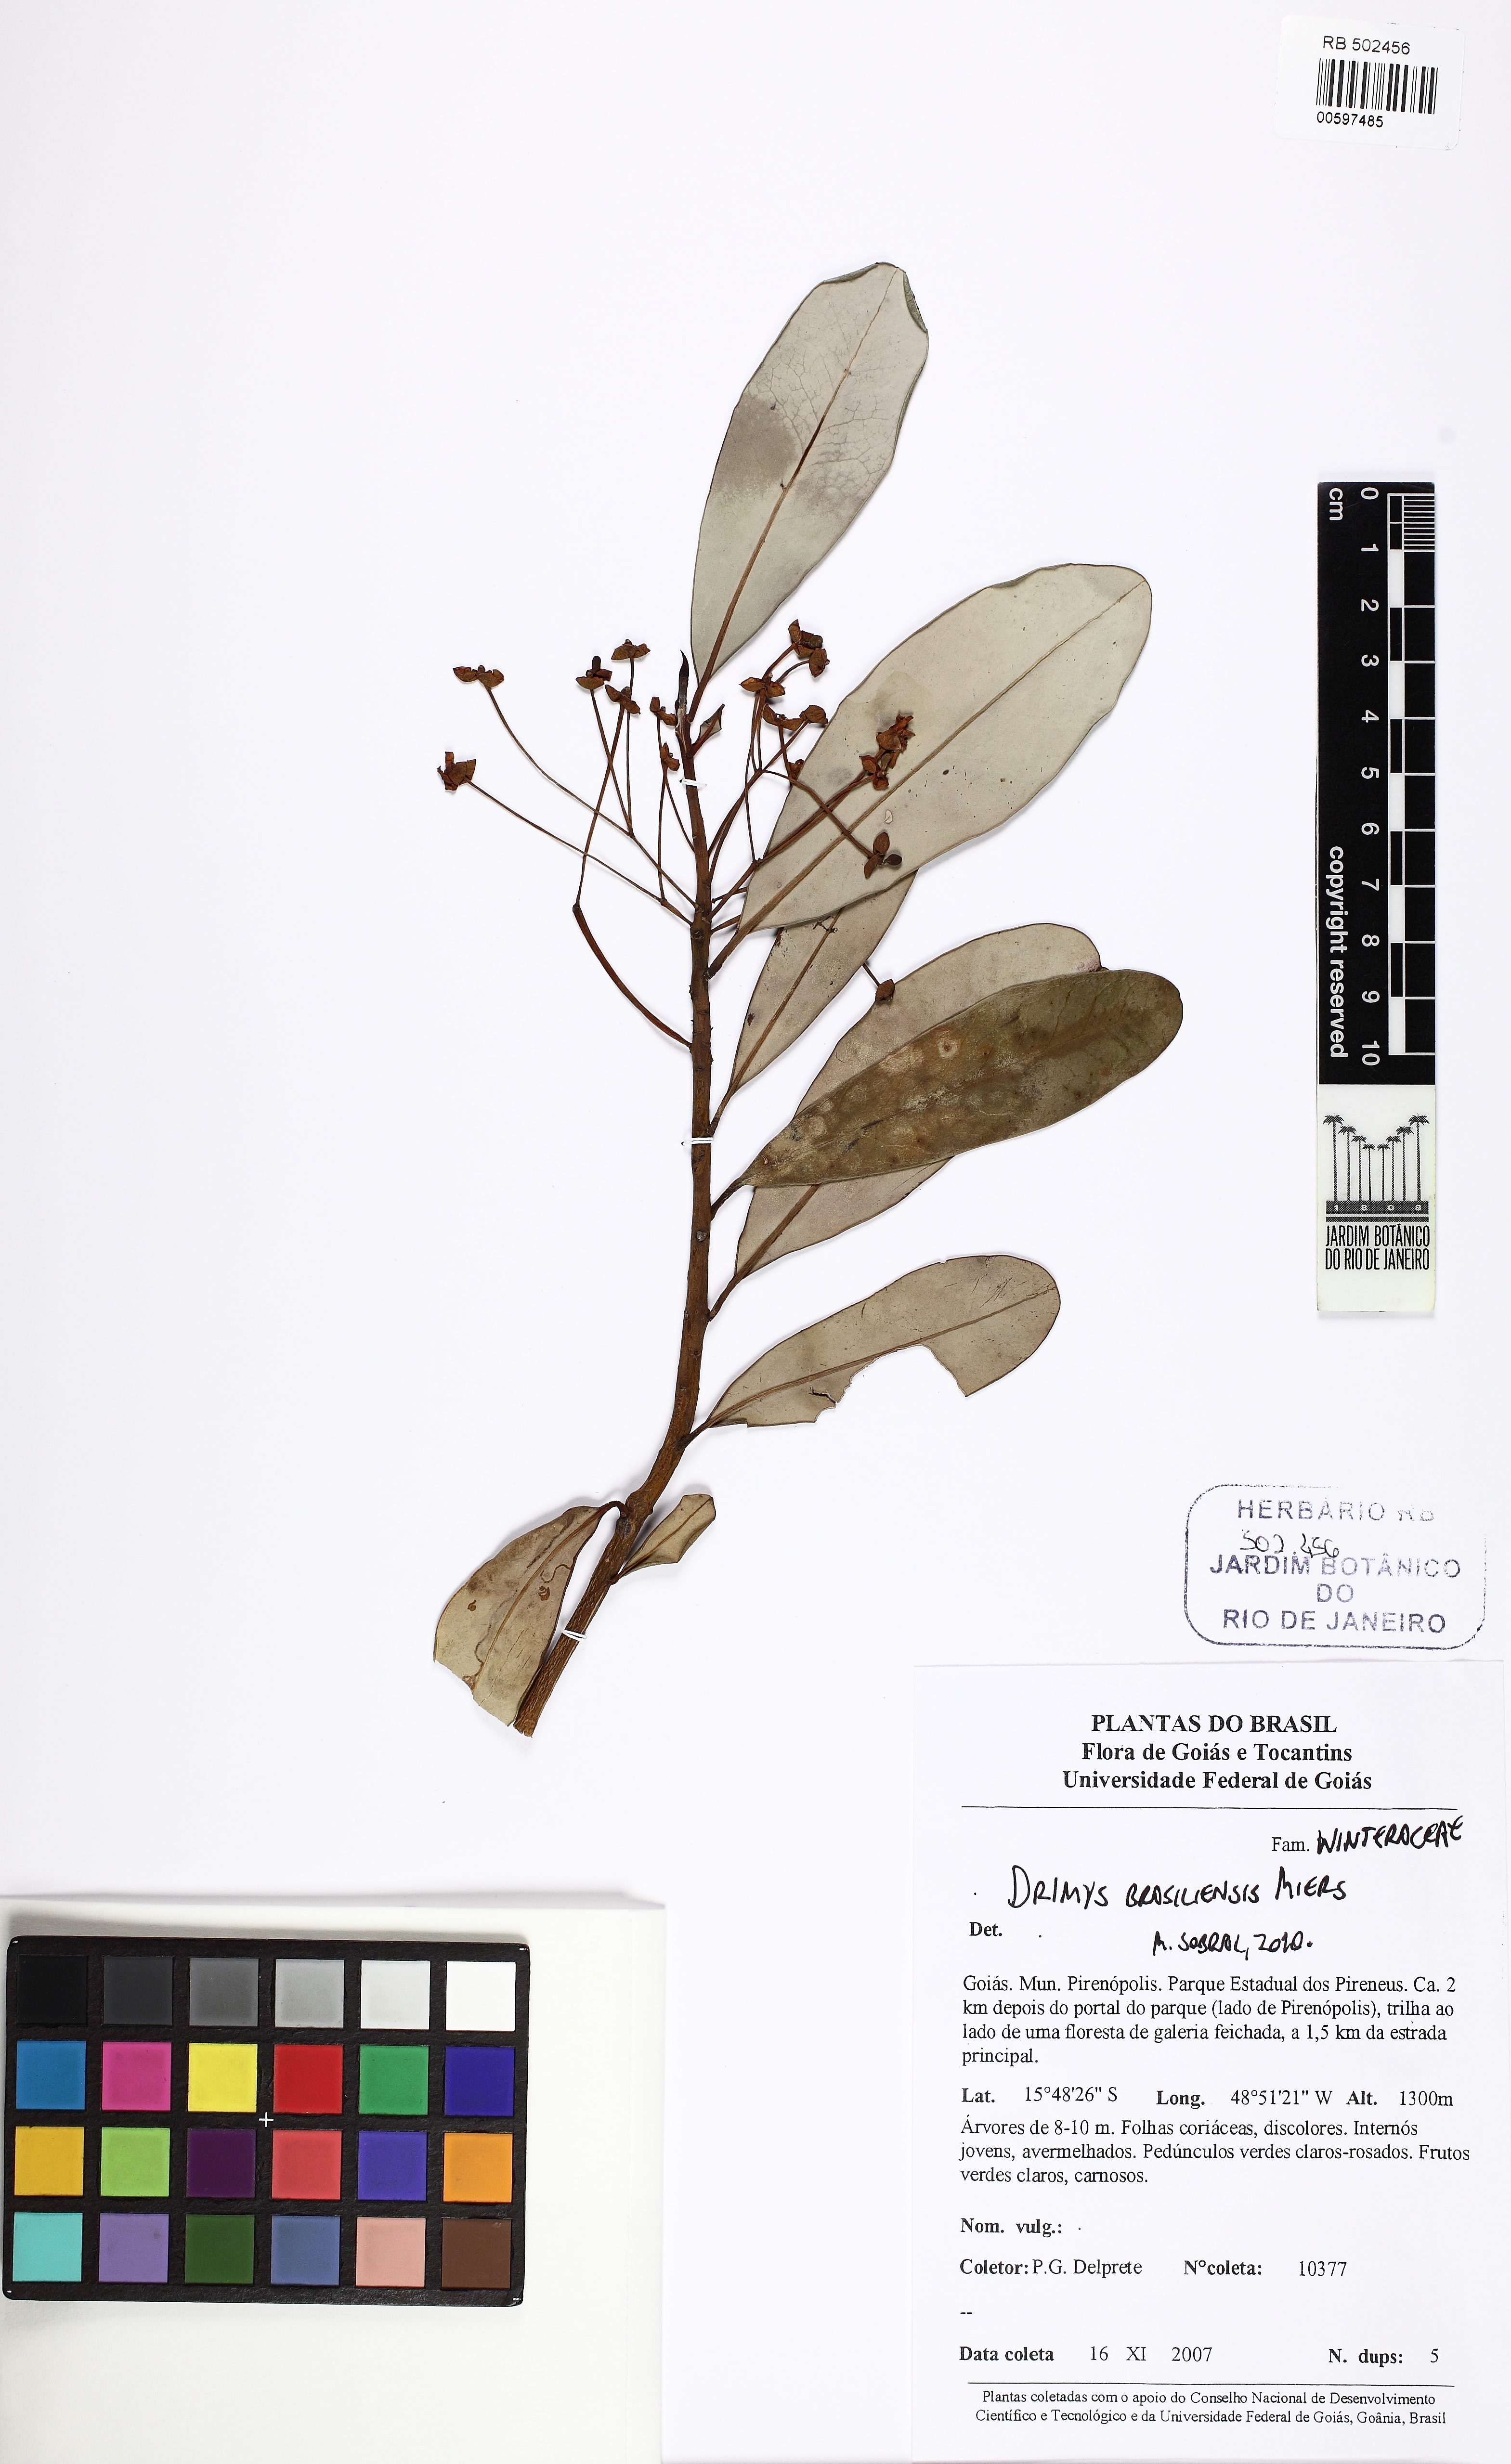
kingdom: Plantae
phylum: Tracheophyta
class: Magnoliopsida
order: Canellales
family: Winteraceae
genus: Drimys
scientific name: Drimys brasiliensis
